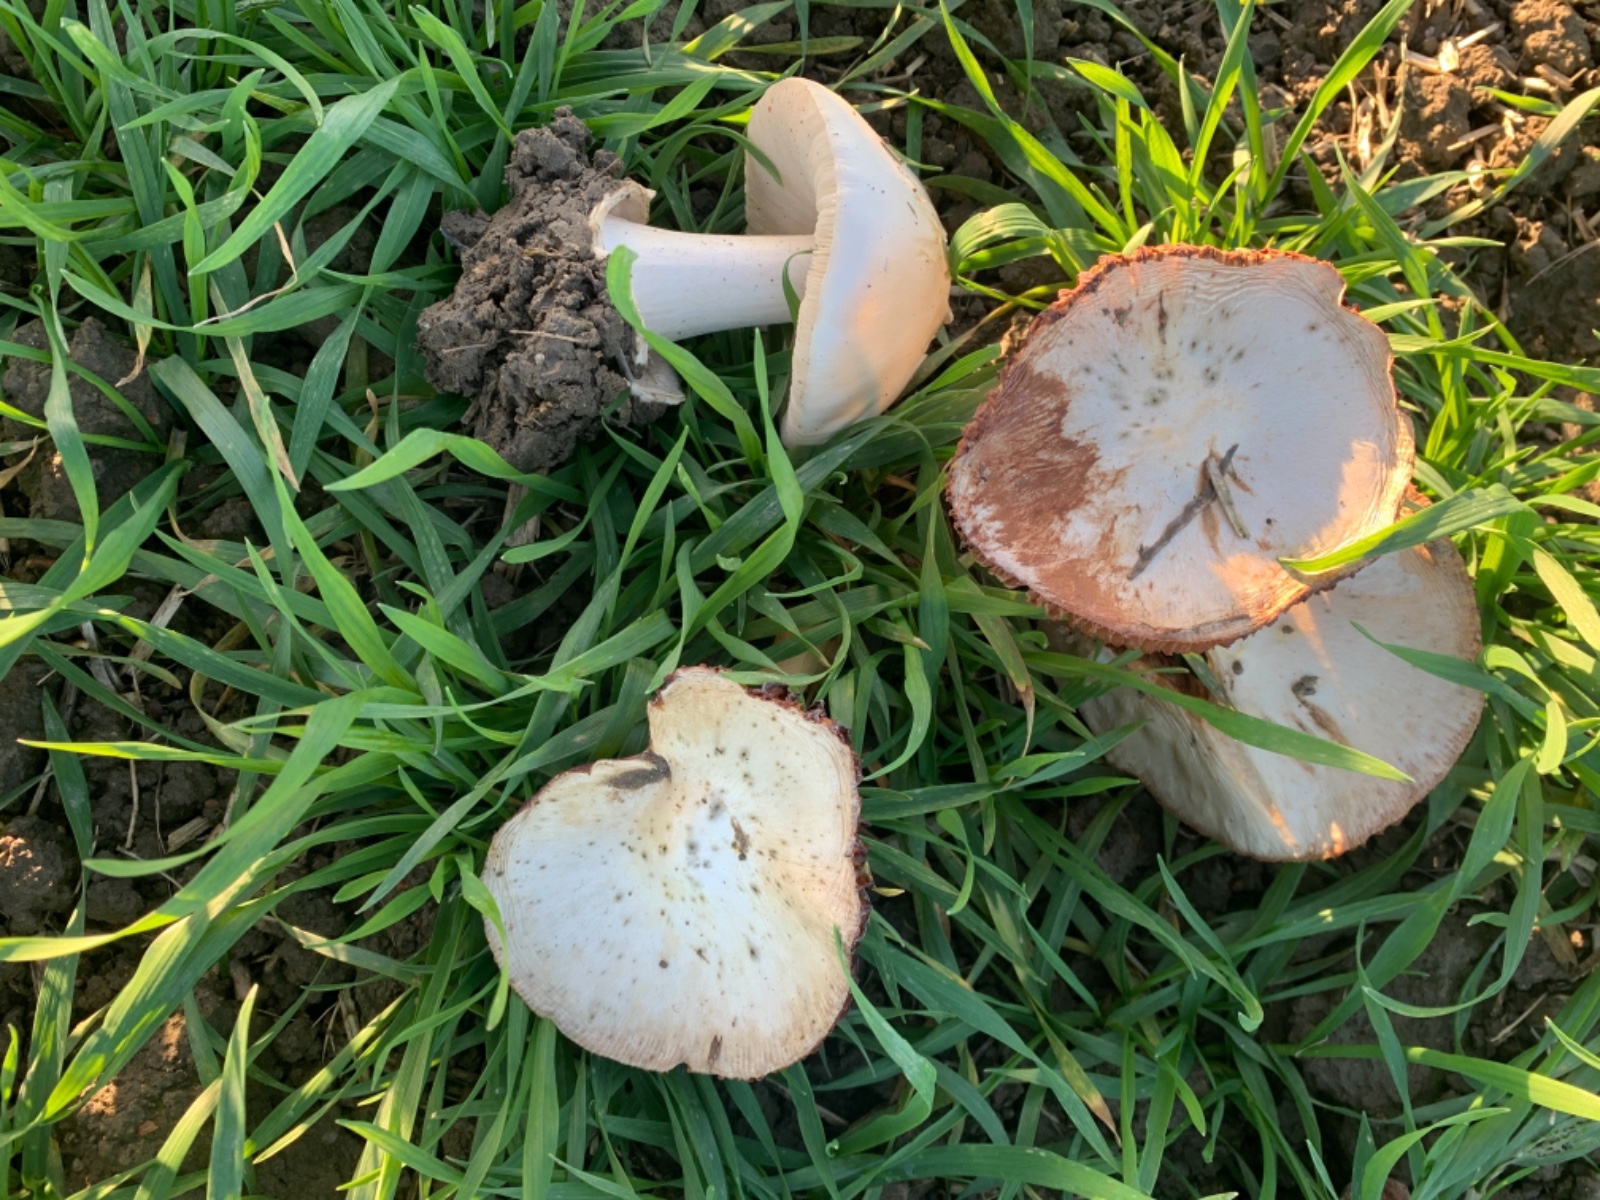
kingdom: Fungi
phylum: Basidiomycota
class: Agaricomycetes
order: Agaricales
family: Pluteaceae
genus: Volvopluteus
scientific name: Volvopluteus gloiocephalus
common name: høj posesvamp
